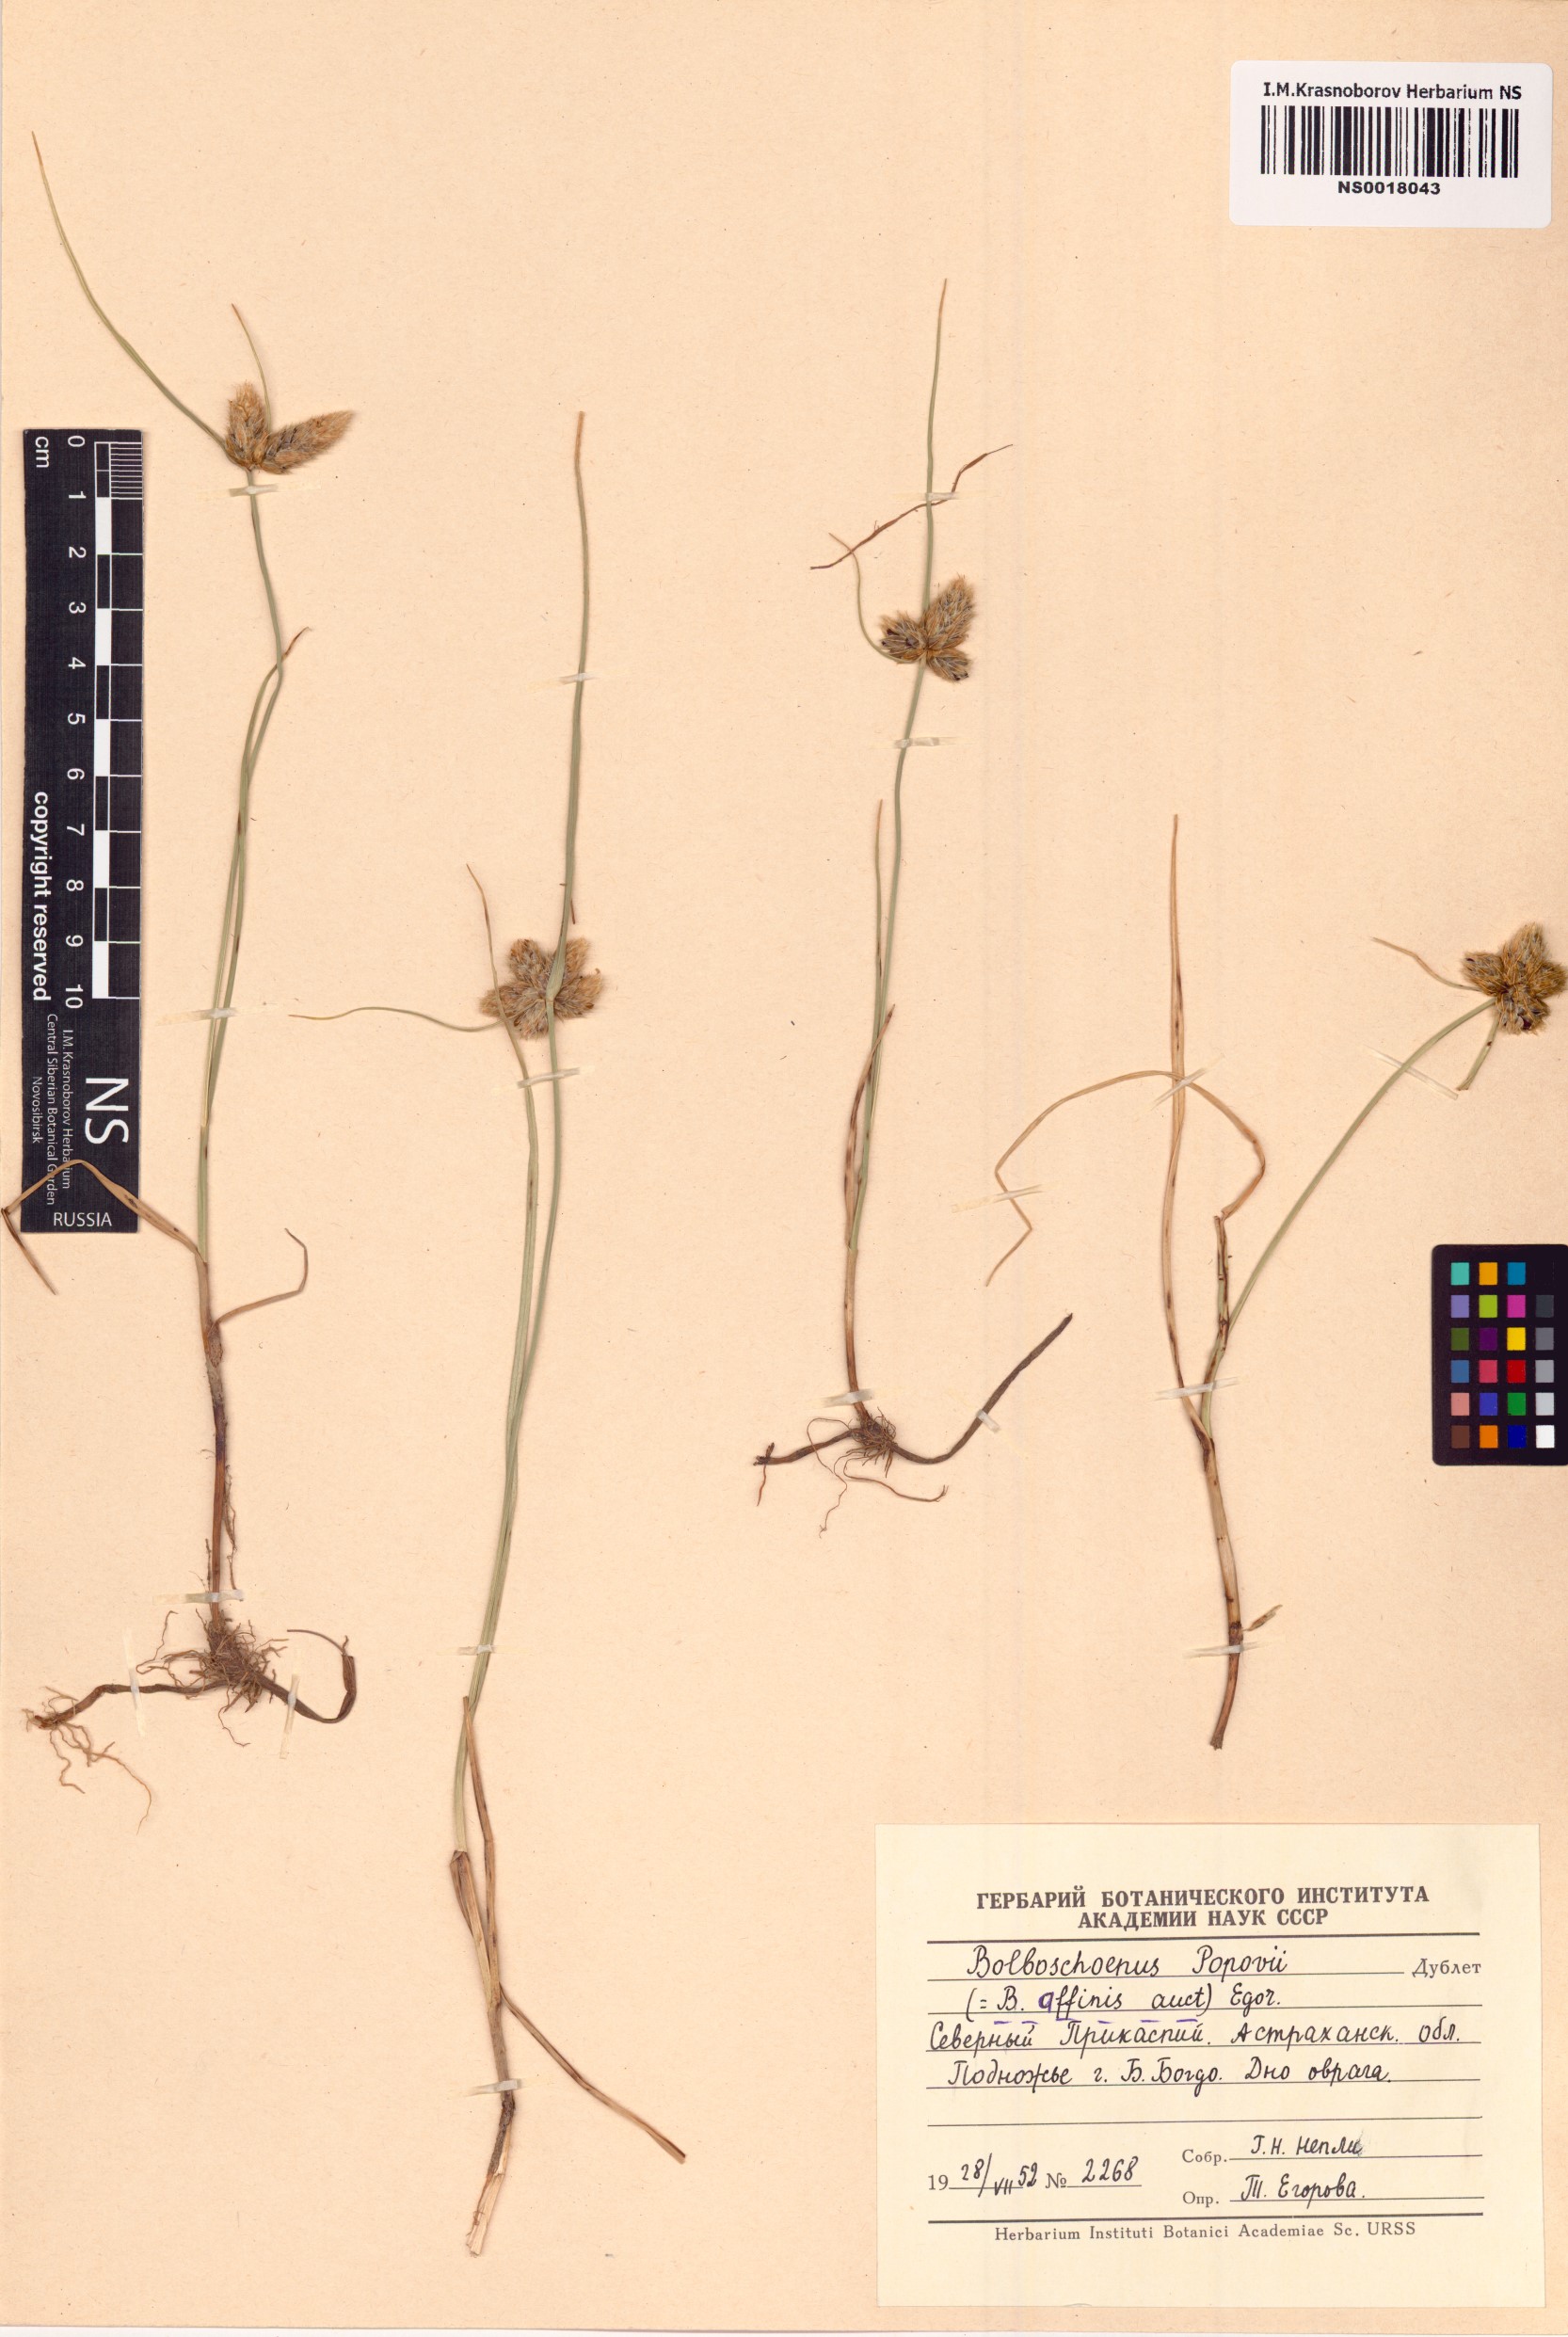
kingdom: Plantae
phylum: Tracheophyta
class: Liliopsida
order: Poales
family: Cyperaceae
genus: Bolboschoenus
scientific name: Bolboschoenus maritimus
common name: Sea club-rush
